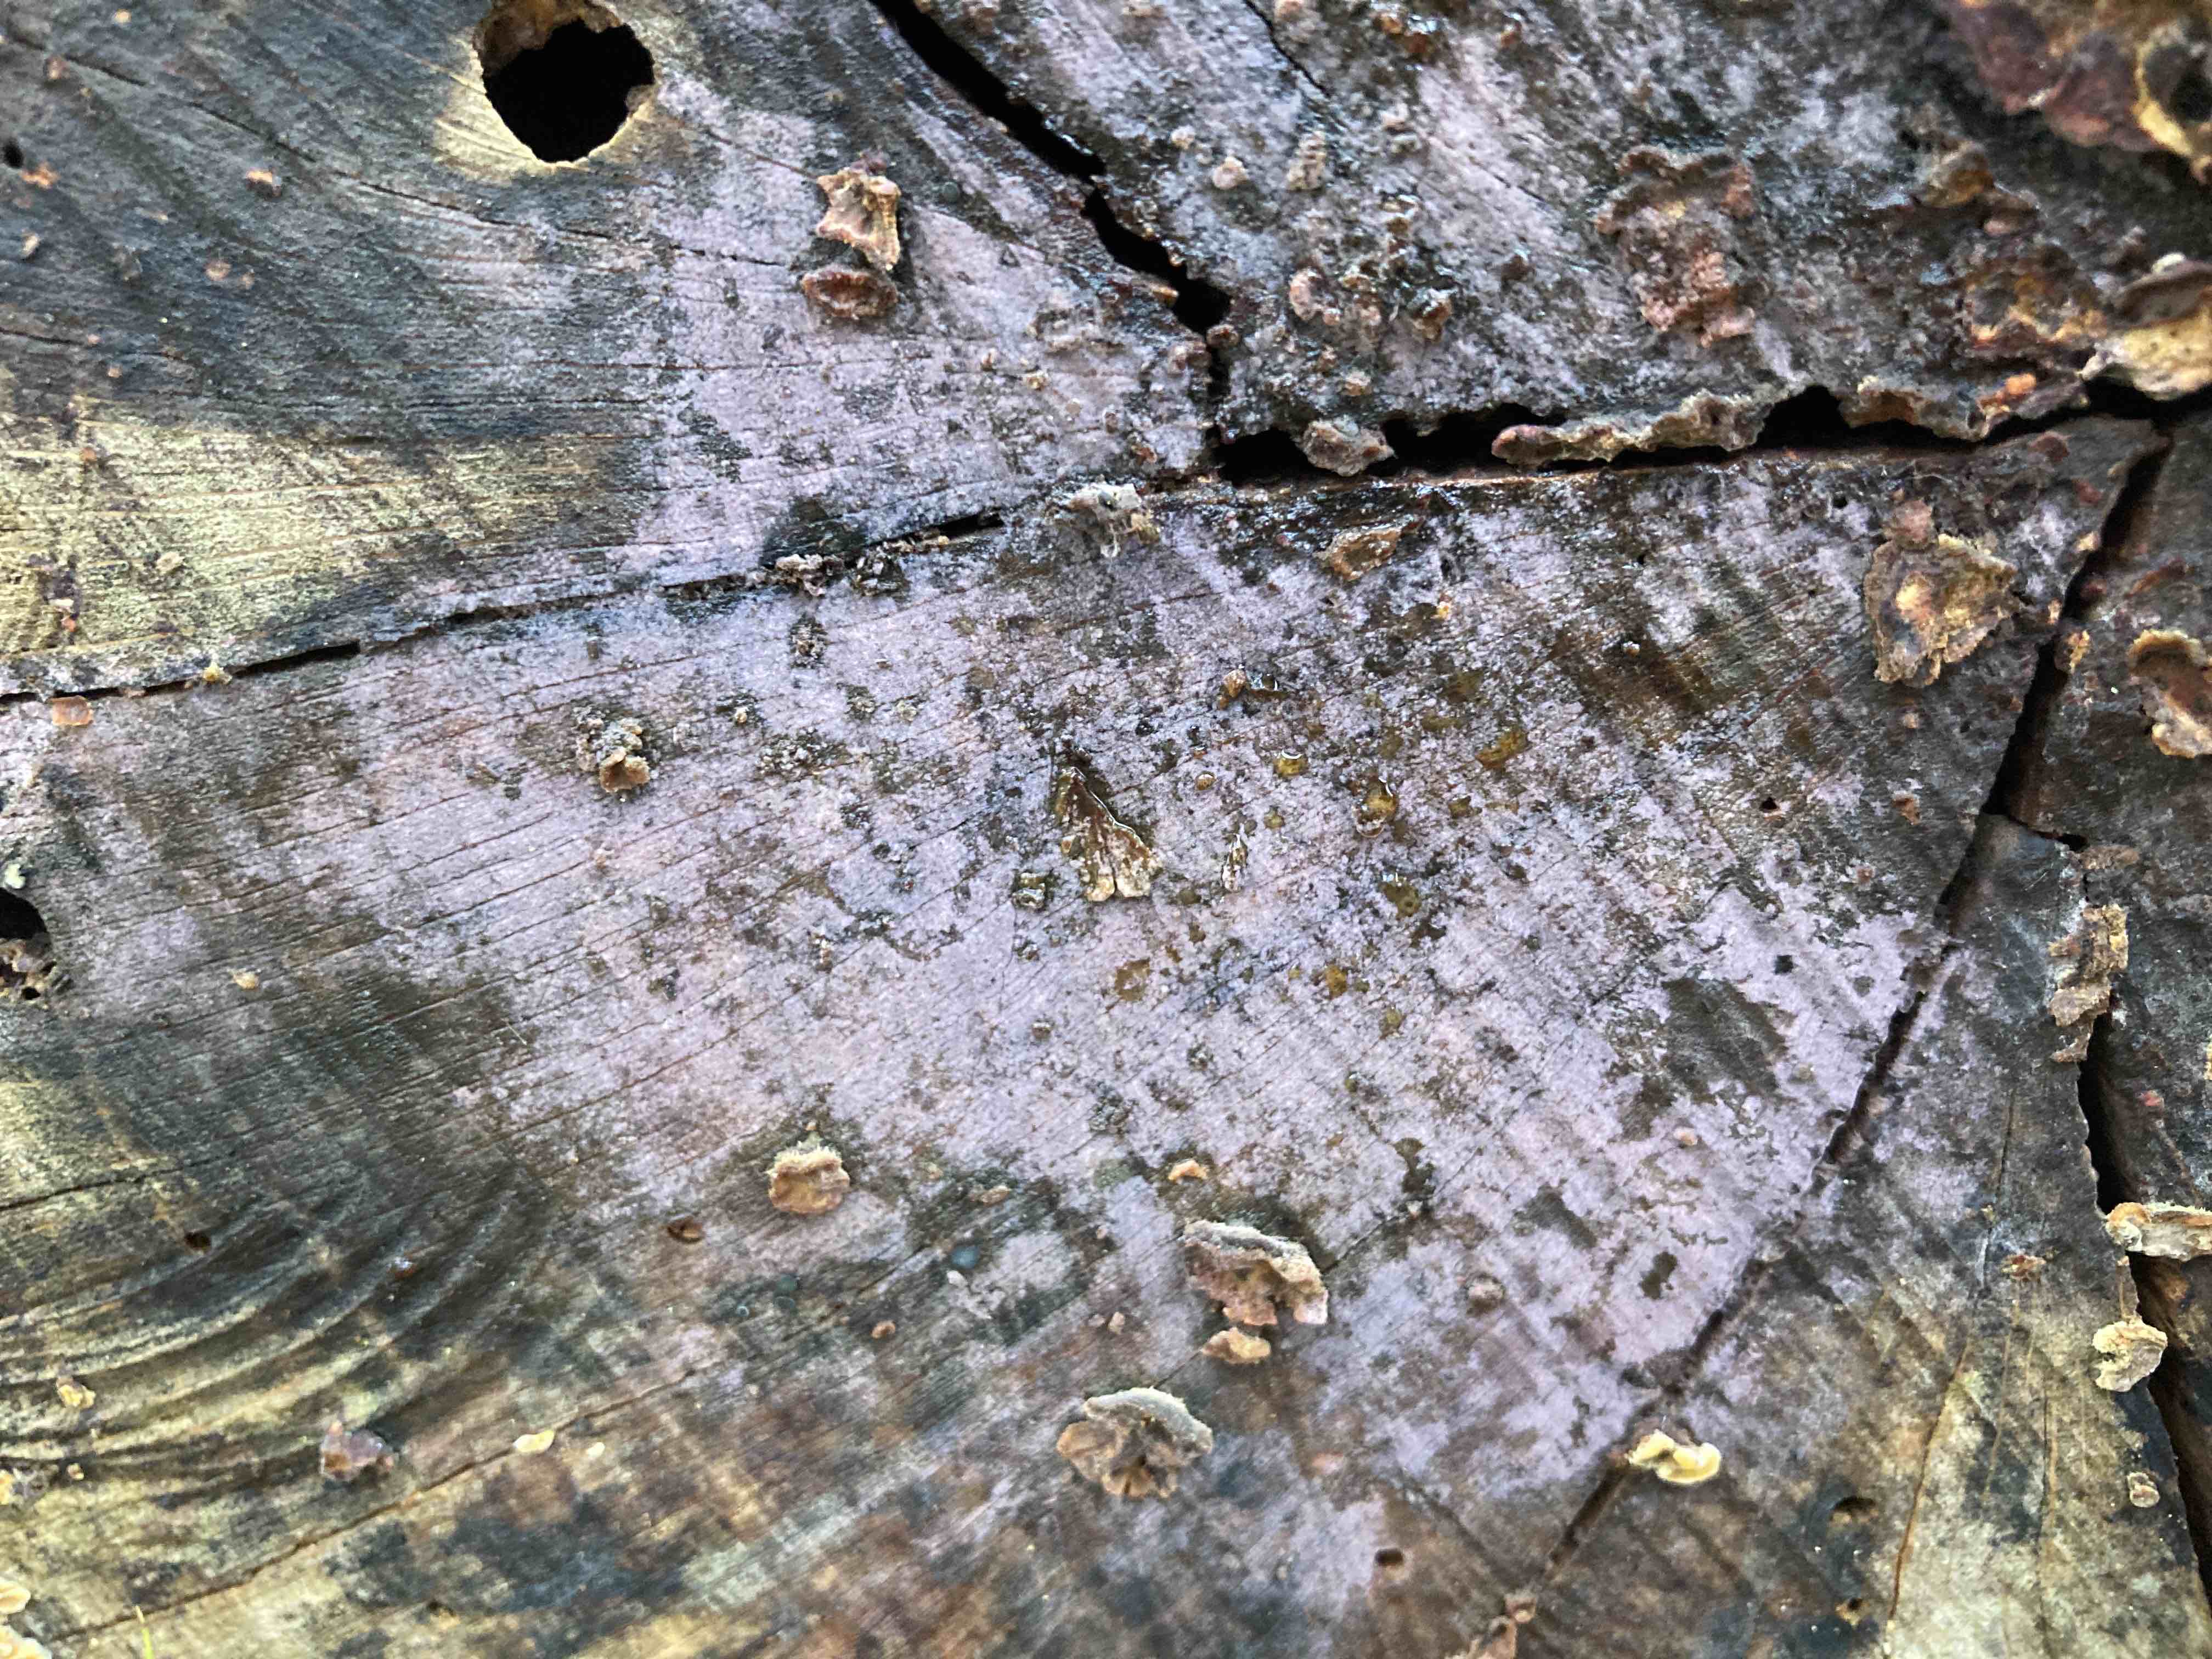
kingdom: Fungi
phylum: Basidiomycota
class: Agaricomycetes
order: Cantharellales
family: Tulasnellaceae
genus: Tulasnella
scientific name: Tulasnella violea
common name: violet ballonhinde
